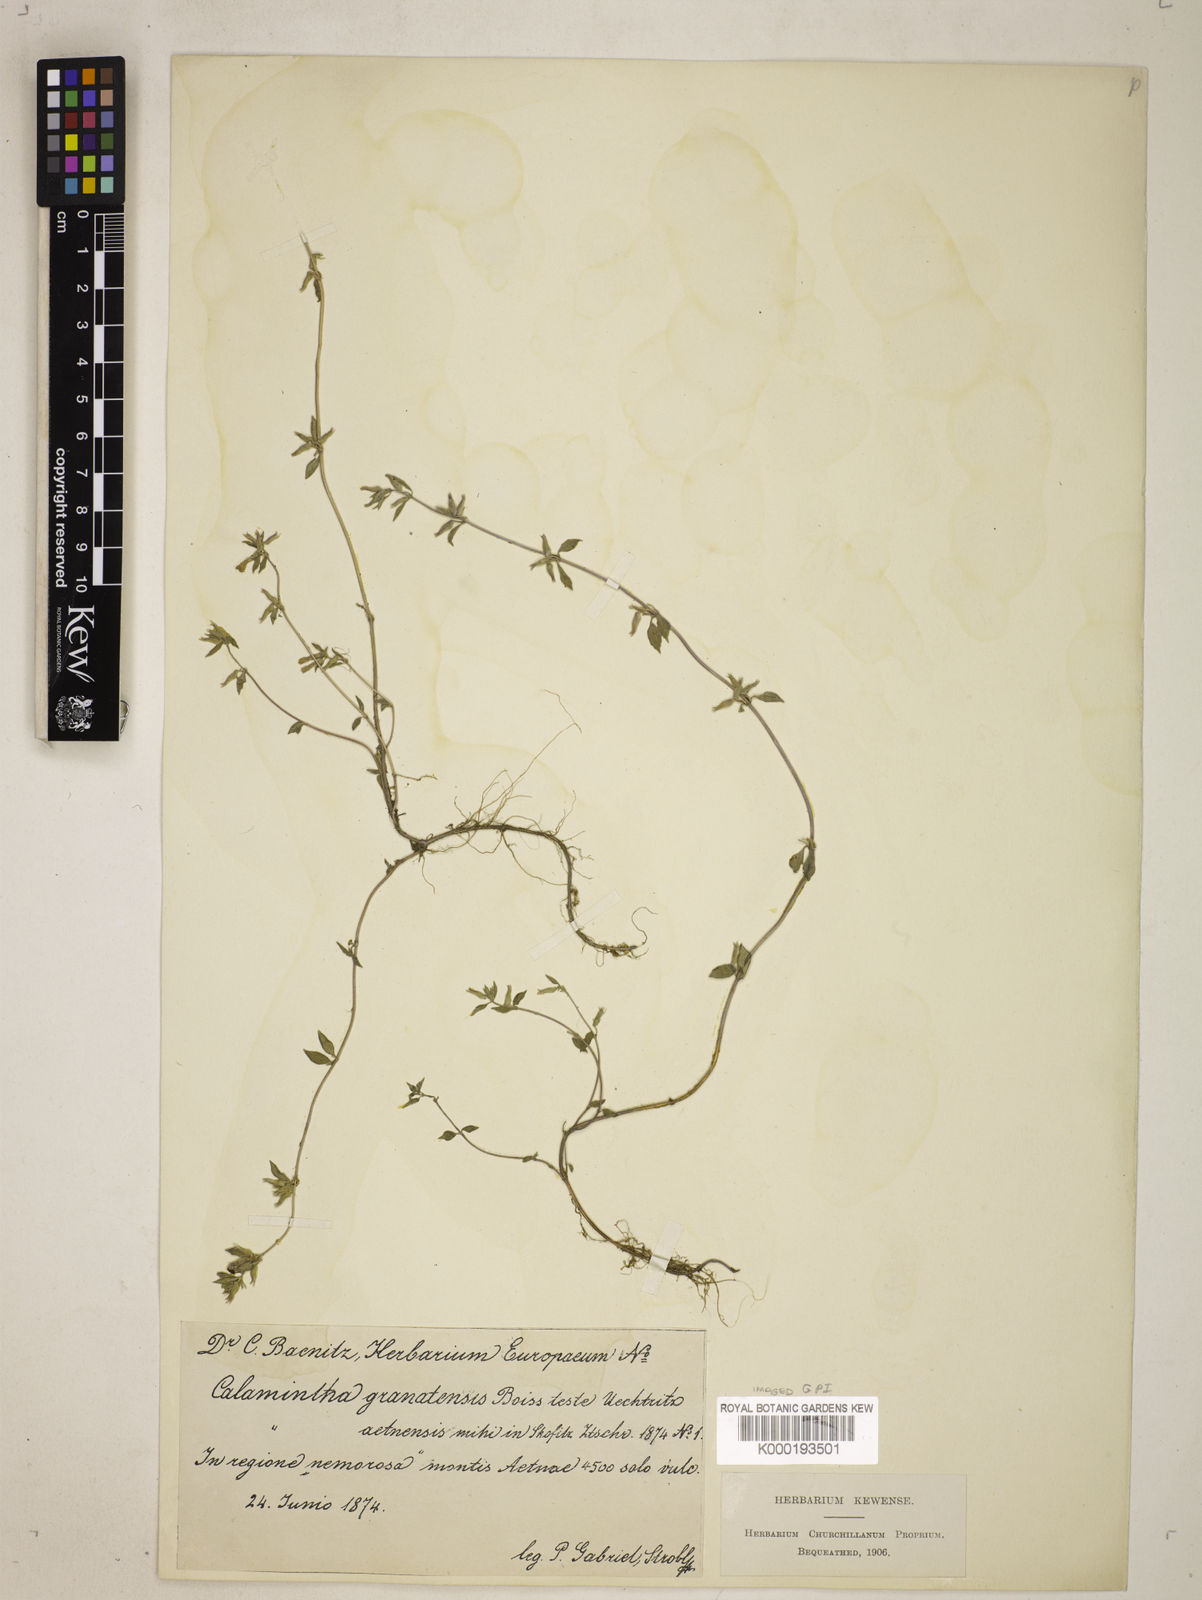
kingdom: Plantae
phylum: Tracheophyta
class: Magnoliopsida
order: Lamiales
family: Lamiaceae
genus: Clinopodium
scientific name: Clinopodium alpinum
